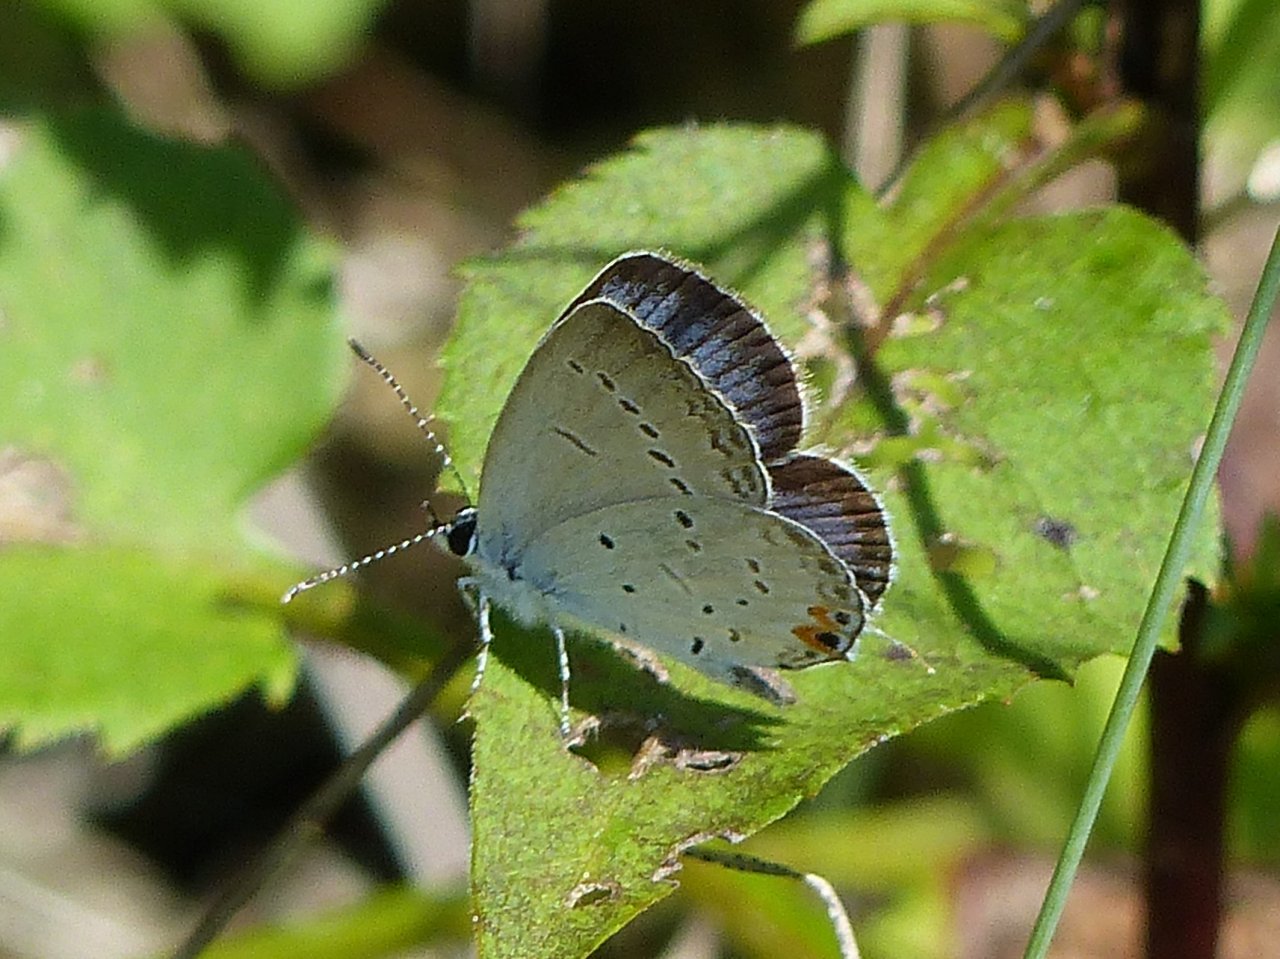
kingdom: Animalia
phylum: Arthropoda
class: Insecta
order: Lepidoptera
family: Lycaenidae
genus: Elkalyce
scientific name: Elkalyce comyntas
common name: Eastern Tailed-Blue
